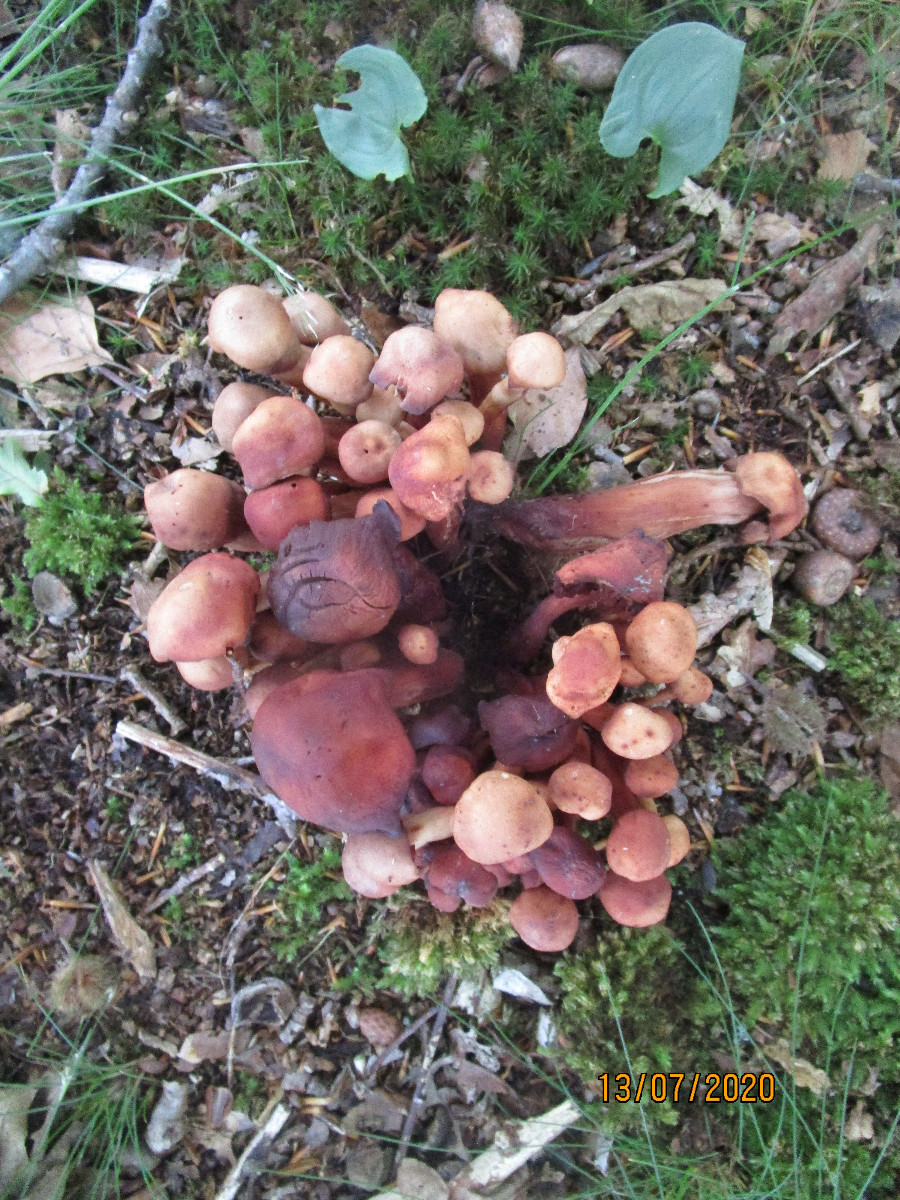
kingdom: Fungi
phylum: Basidiomycota
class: Agaricomycetes
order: Agaricales
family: Omphalotaceae
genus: Gymnopus
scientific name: Gymnopus fusipes
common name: tenstokket fladhat
